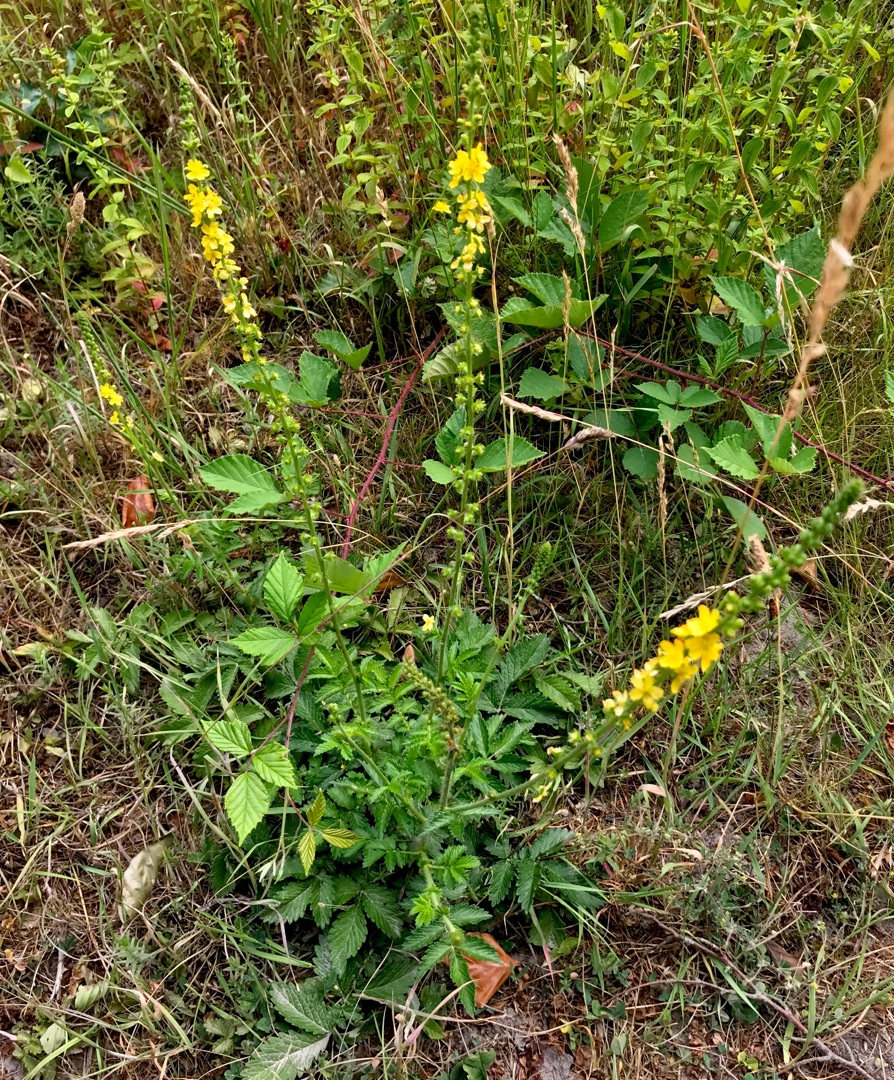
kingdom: Plantae
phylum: Tracheophyta
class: Magnoliopsida
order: Rosales
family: Rosaceae
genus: Agrimonia
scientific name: Agrimonia eupatoria
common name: Almindelig agermåne
